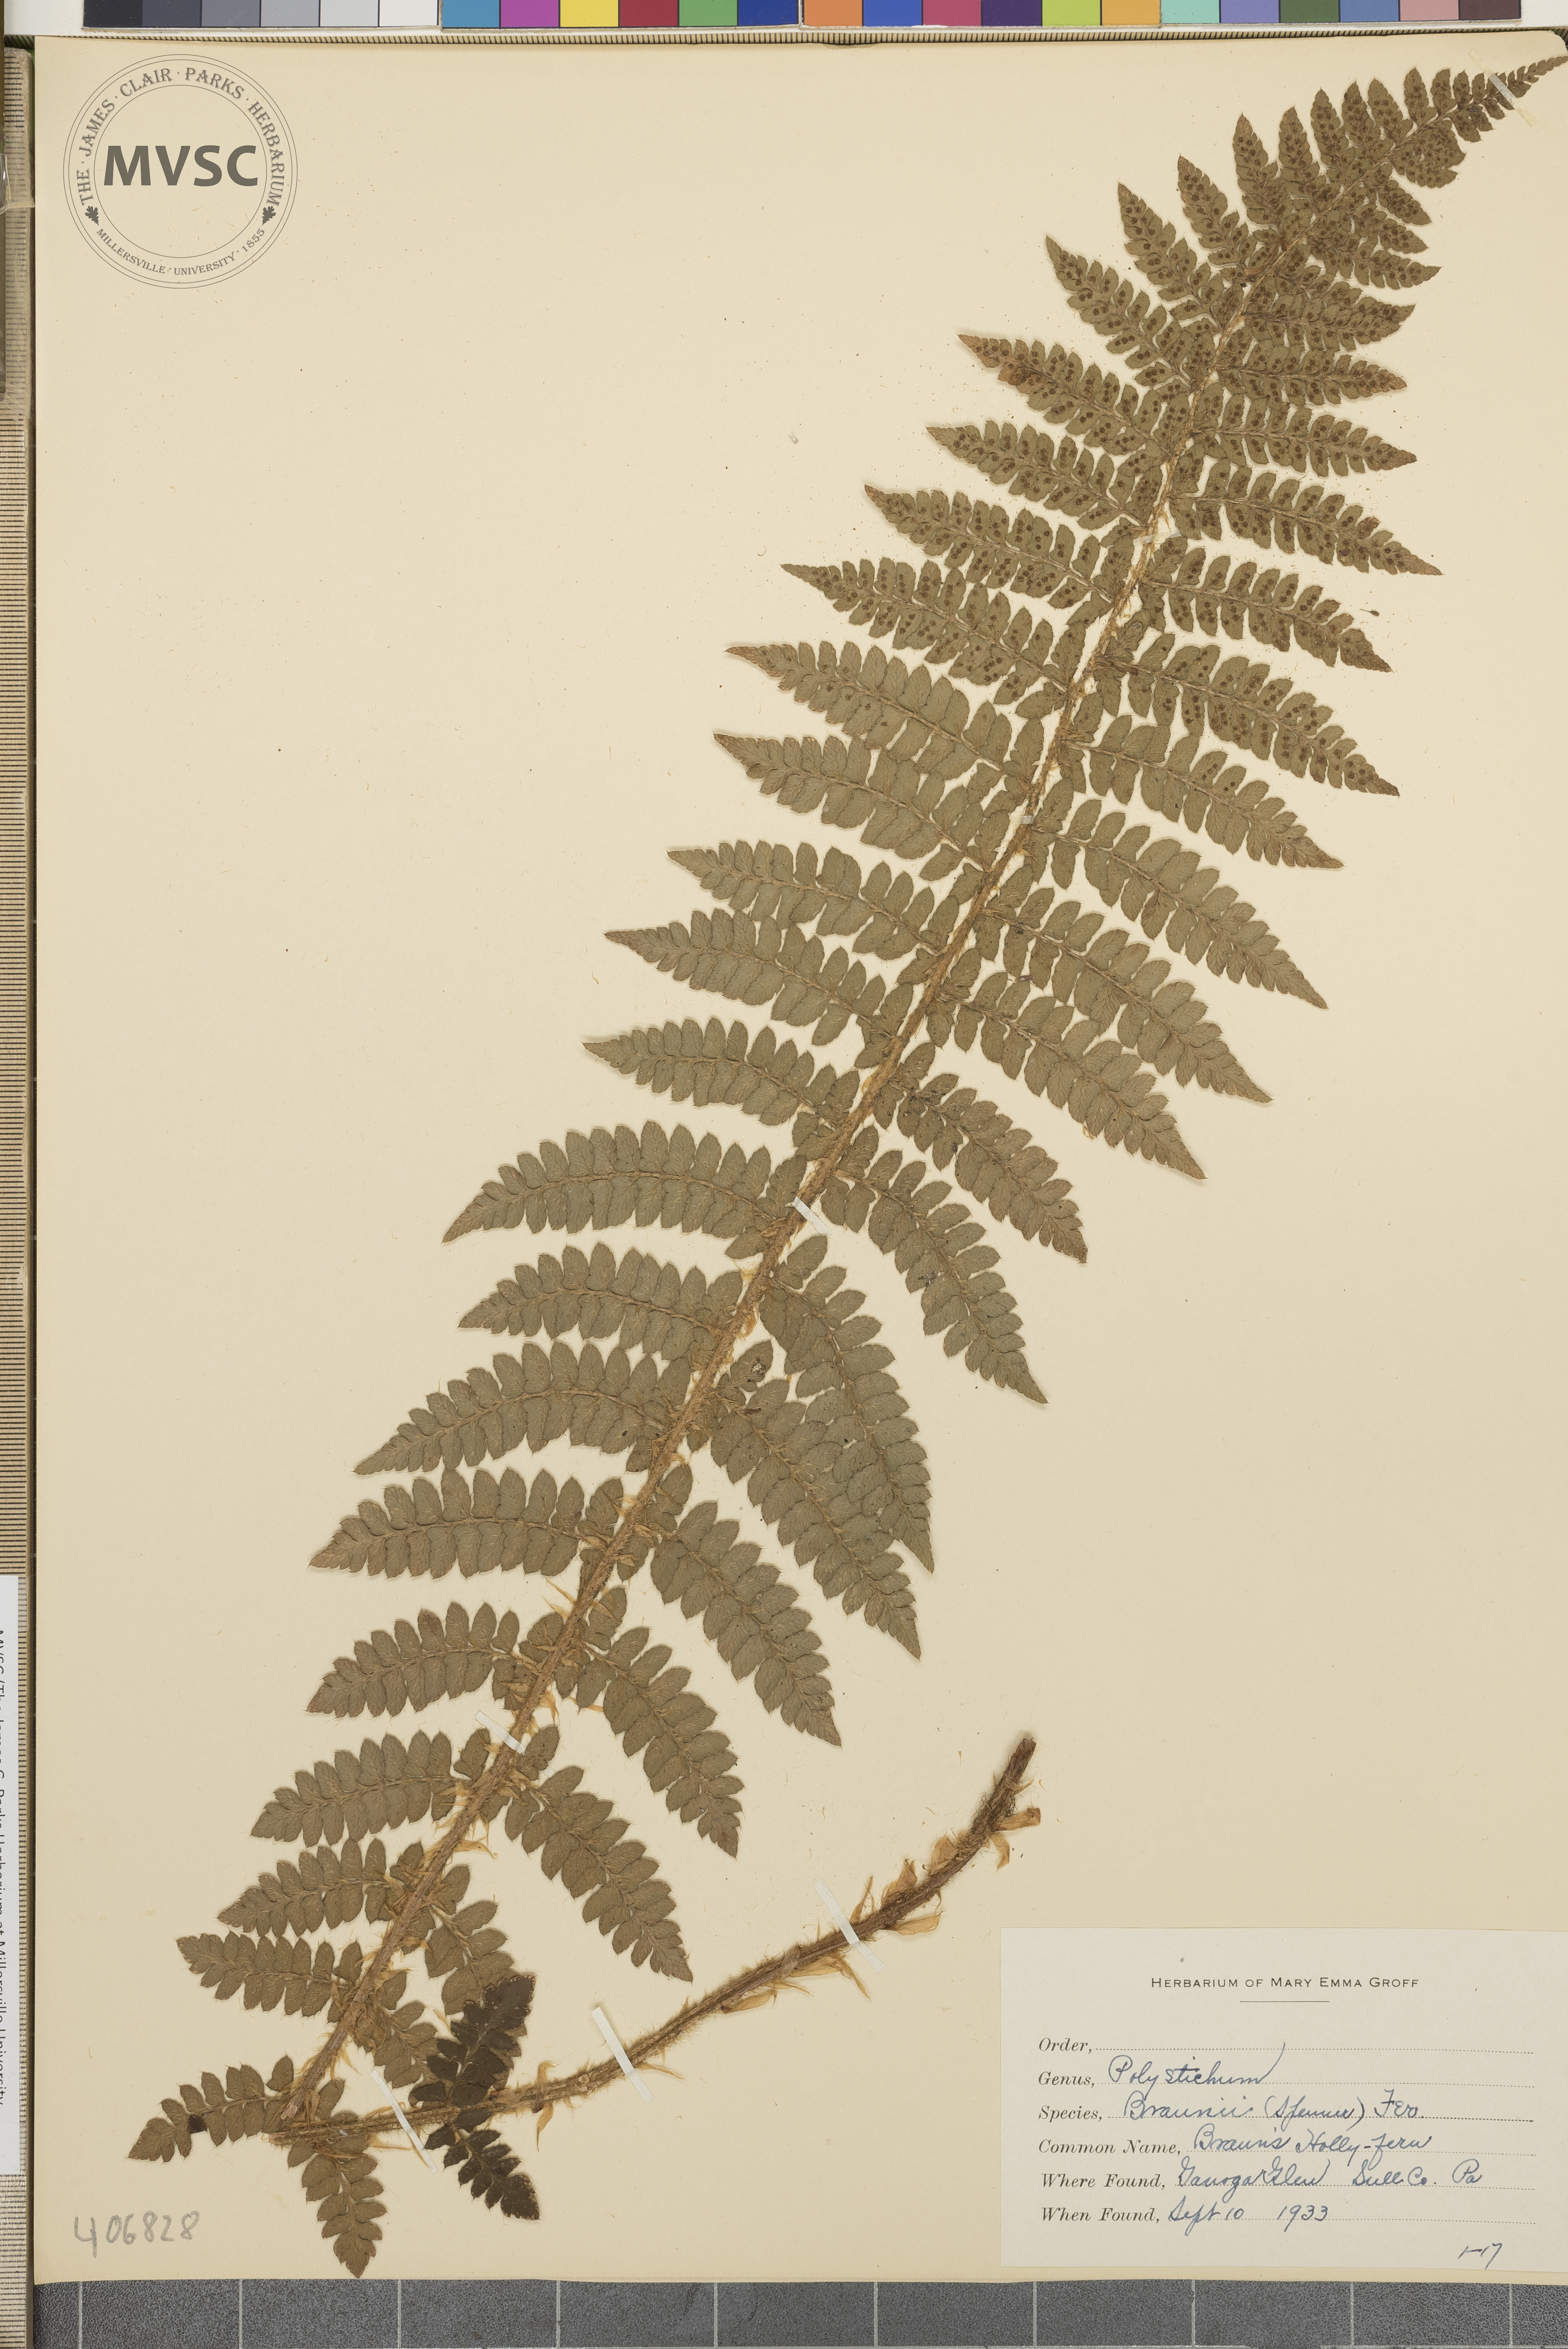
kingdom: Plantae
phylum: Tracheophyta
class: Polypodiopsida
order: Polypodiales
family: Dryopteridaceae
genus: Polystichum
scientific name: Polystichum braunii
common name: Braun's holly fern
